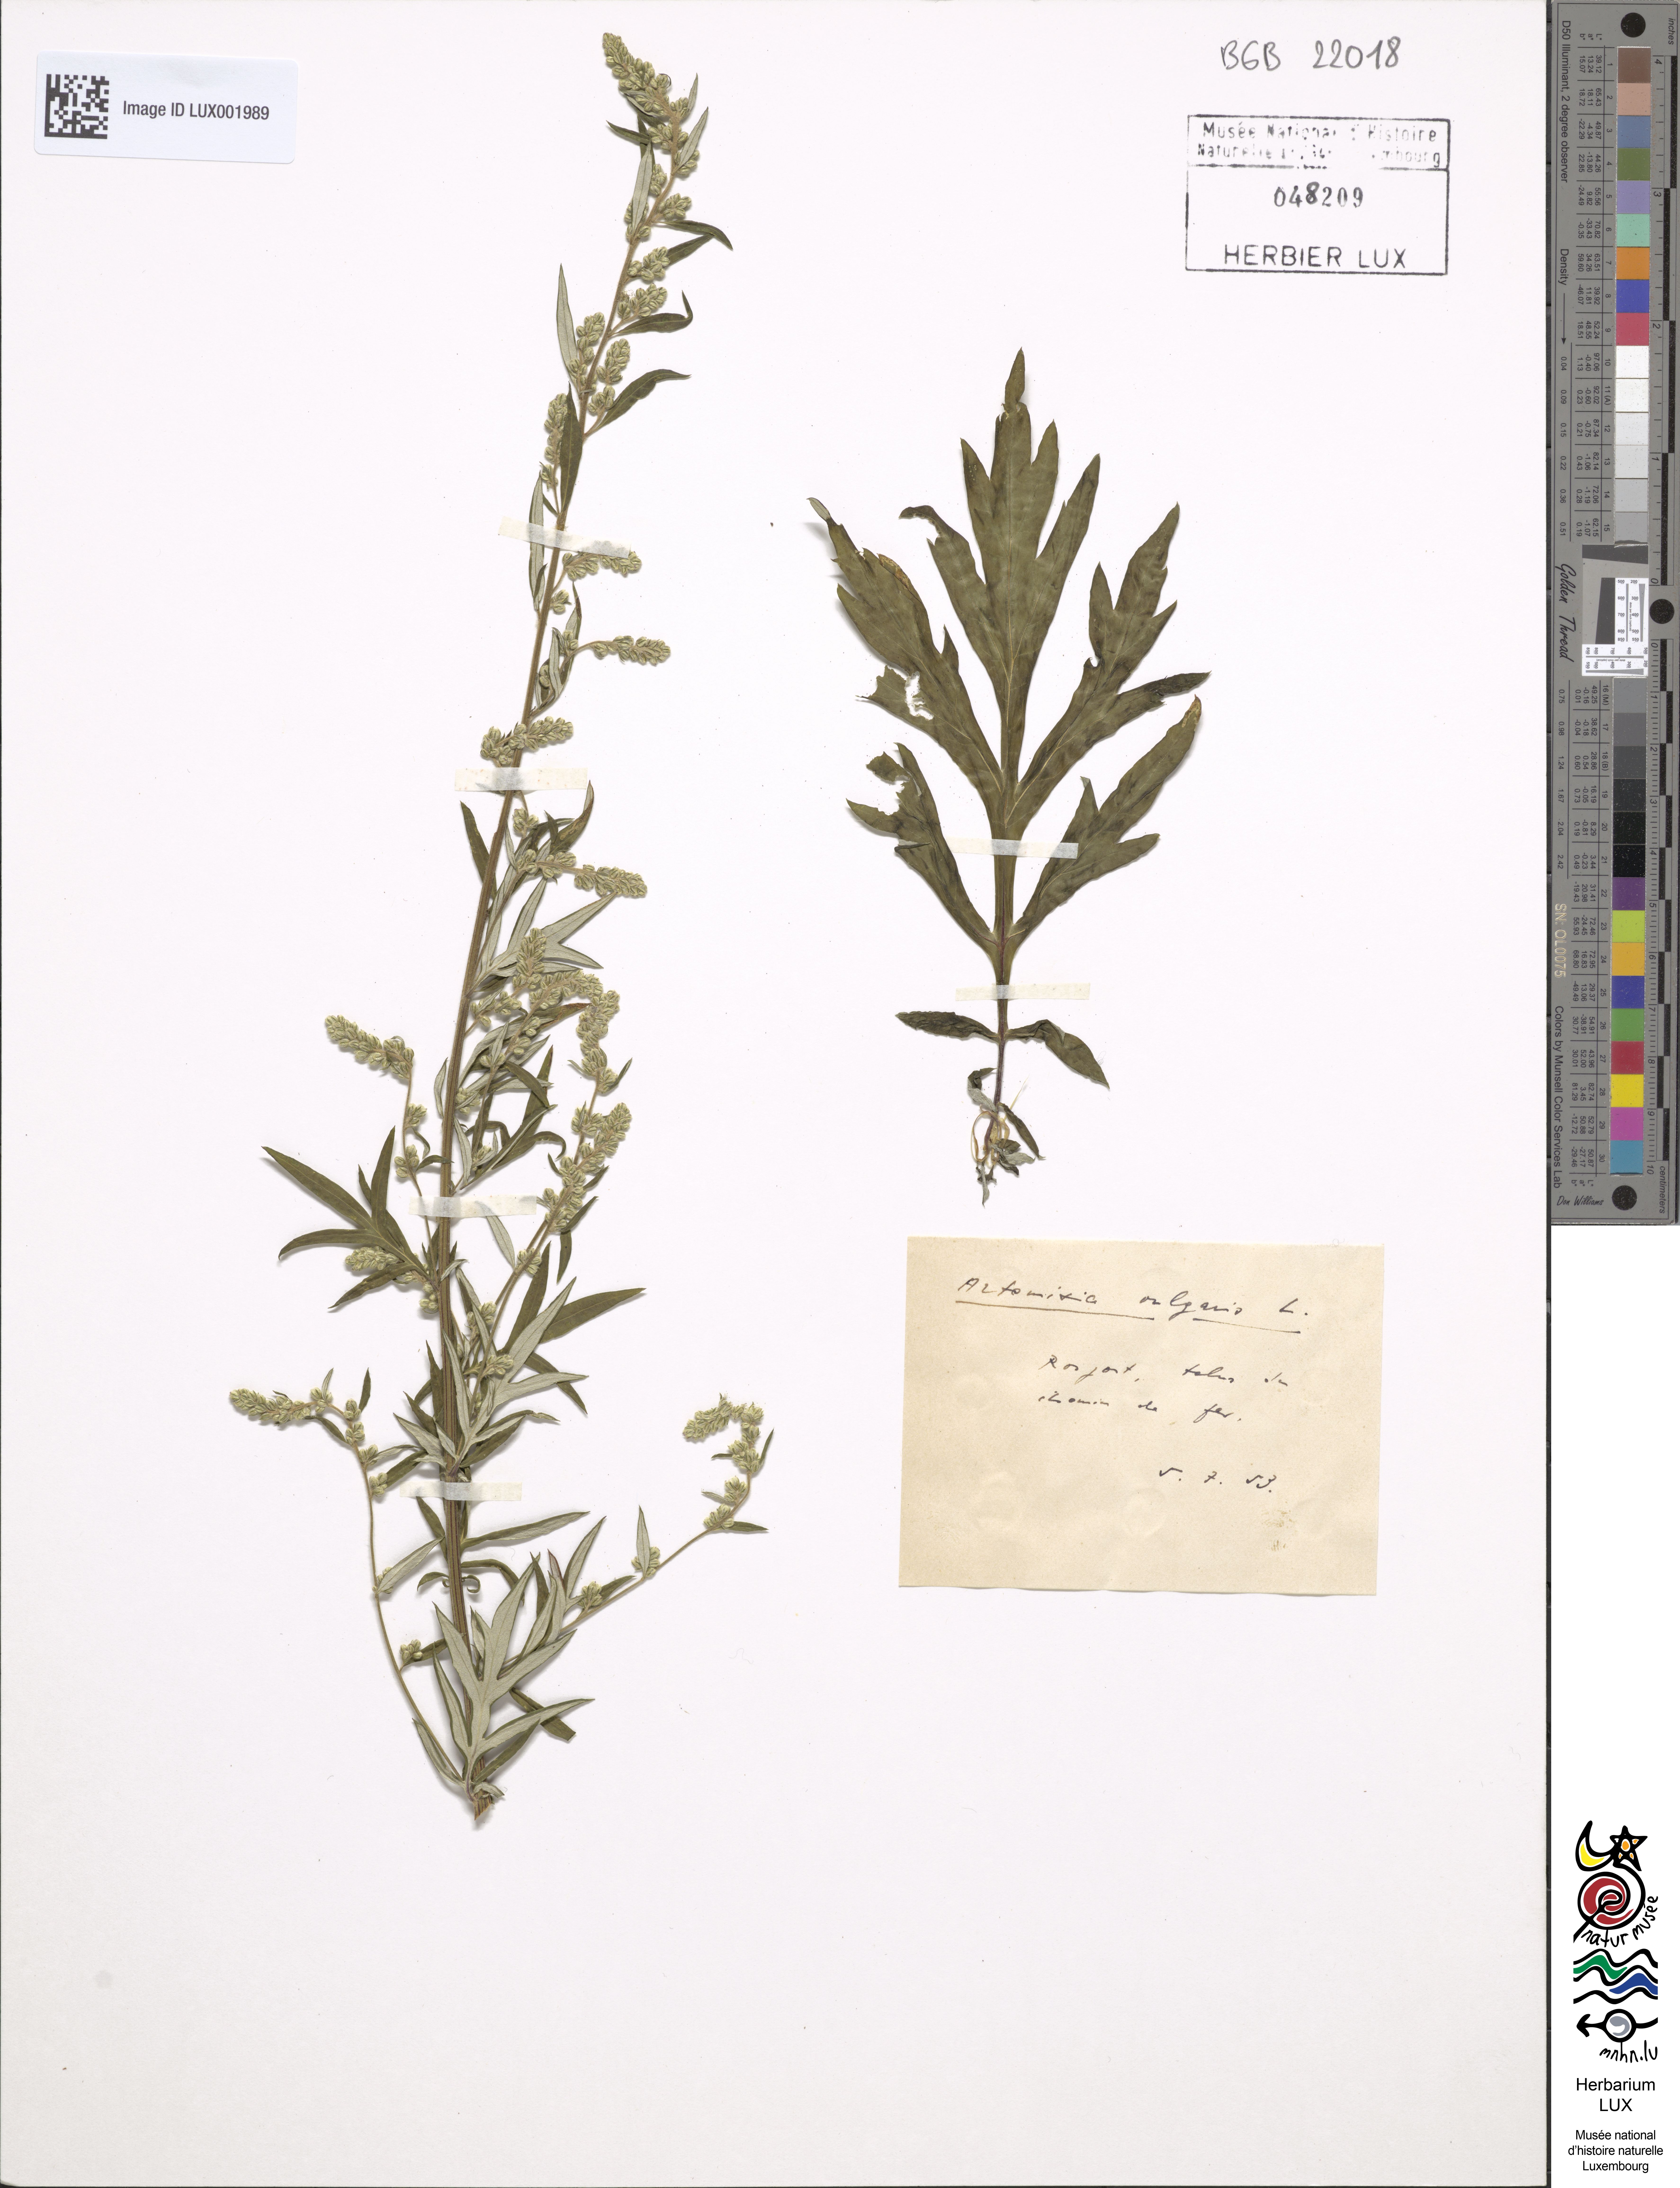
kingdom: Plantae
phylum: Tracheophyta
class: Magnoliopsida
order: Asterales
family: Asteraceae
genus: Artemisia
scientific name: Artemisia vulgaris
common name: Mugwort
